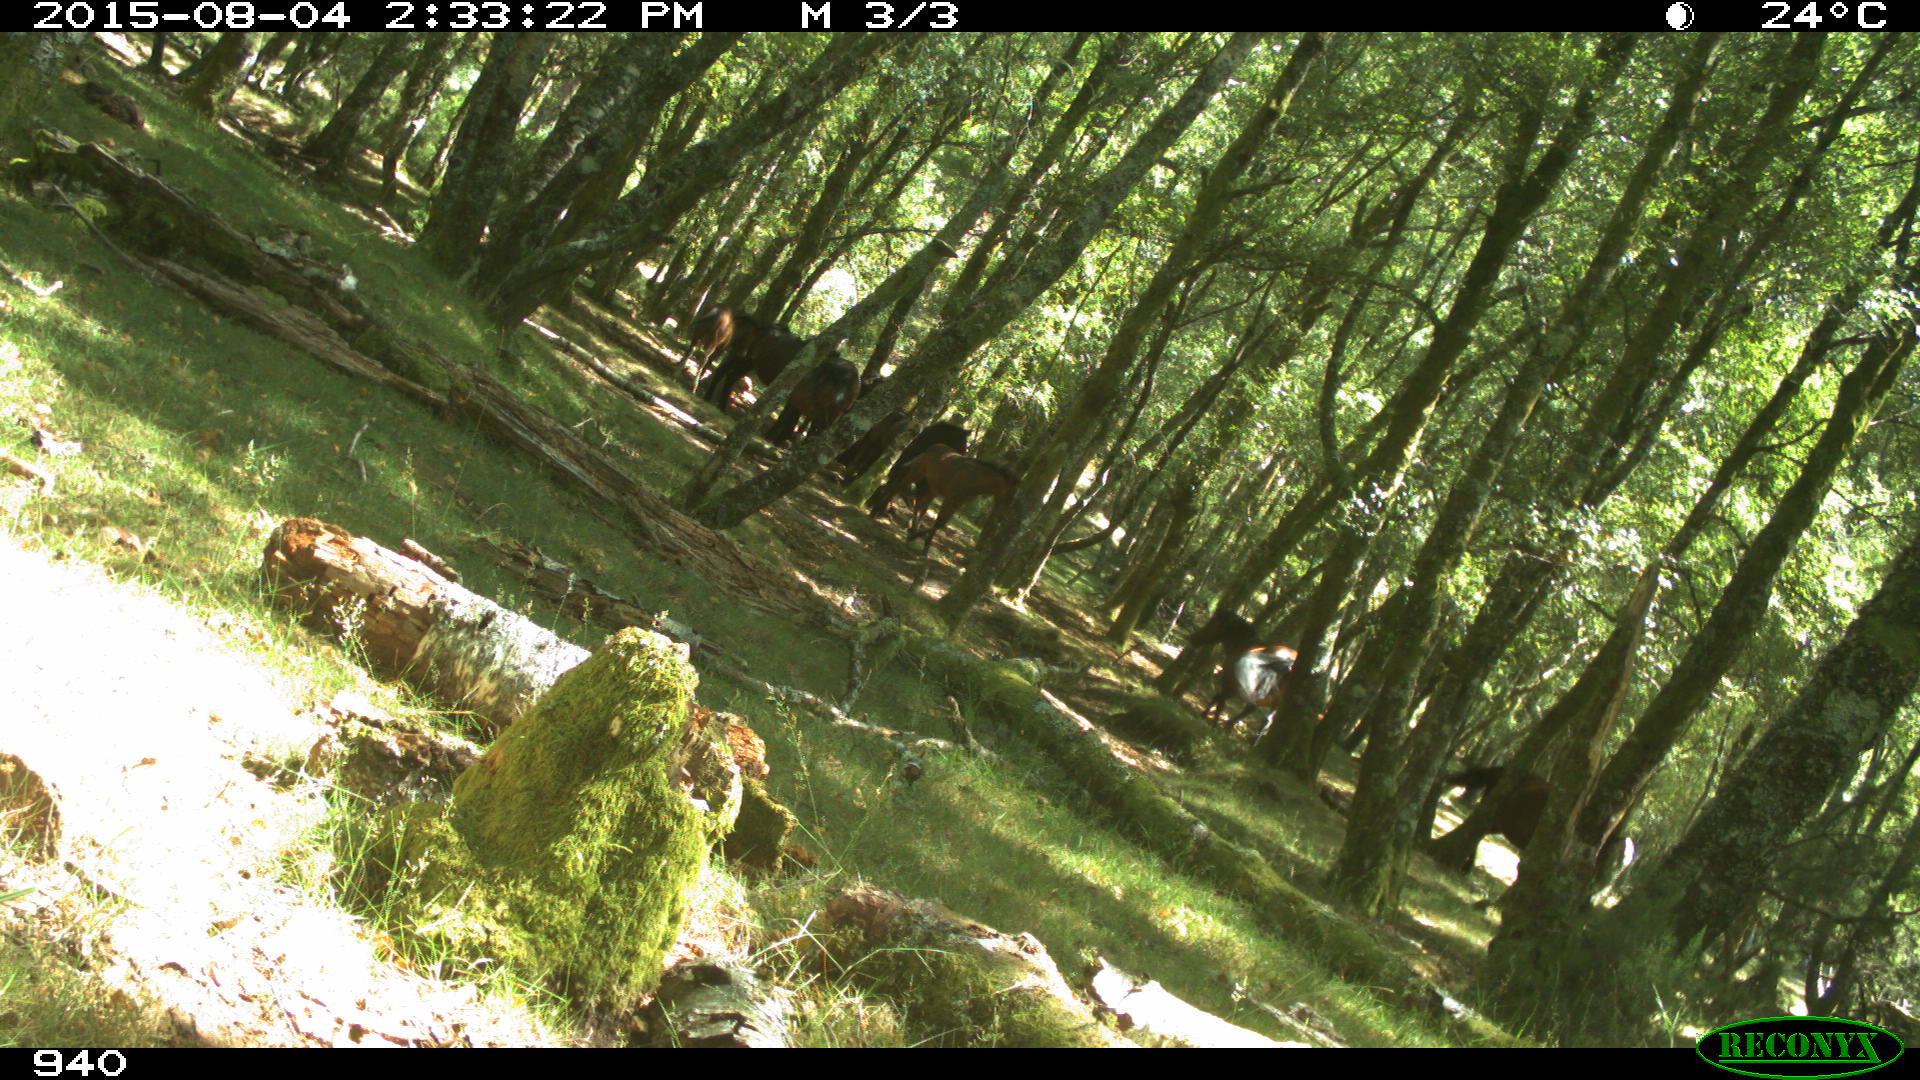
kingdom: Animalia
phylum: Chordata
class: Mammalia
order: Perissodactyla
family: Equidae
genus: Equus
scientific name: Equus caballus
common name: Horse
